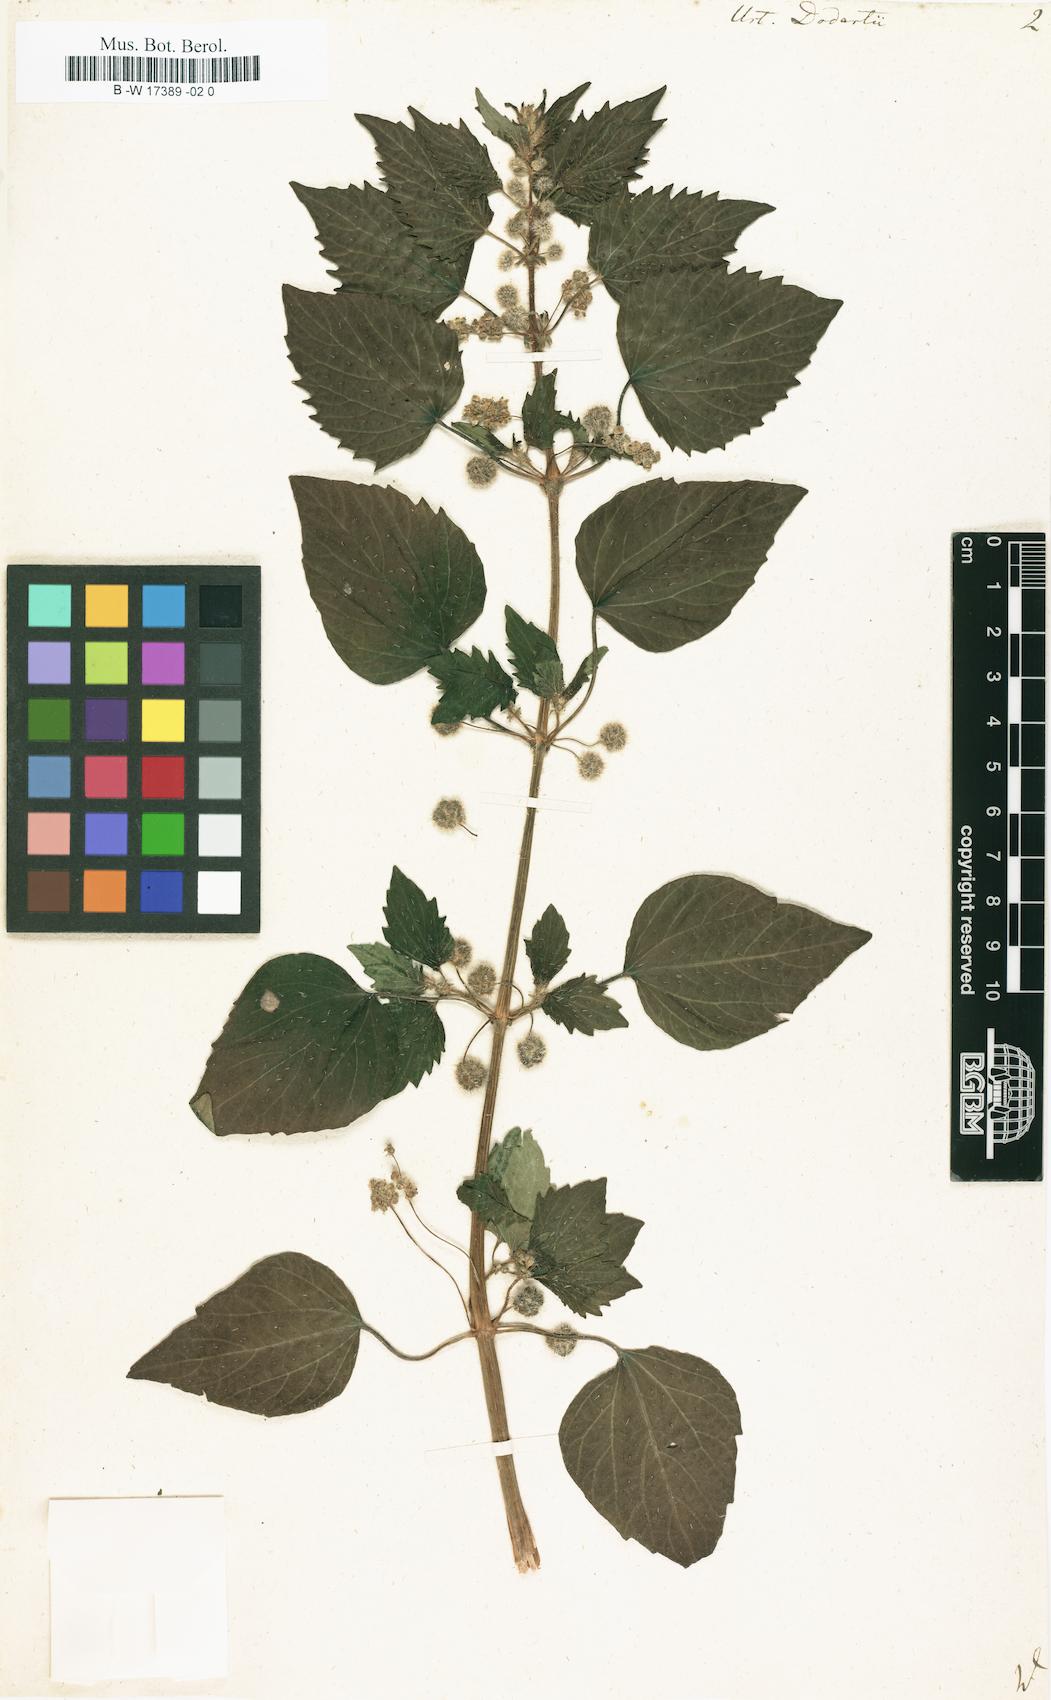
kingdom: Plantae
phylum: Tracheophyta
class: Magnoliopsida
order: Rosales
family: Urticaceae
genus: Urtica
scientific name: Urtica pilulifera
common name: Roman nettle
